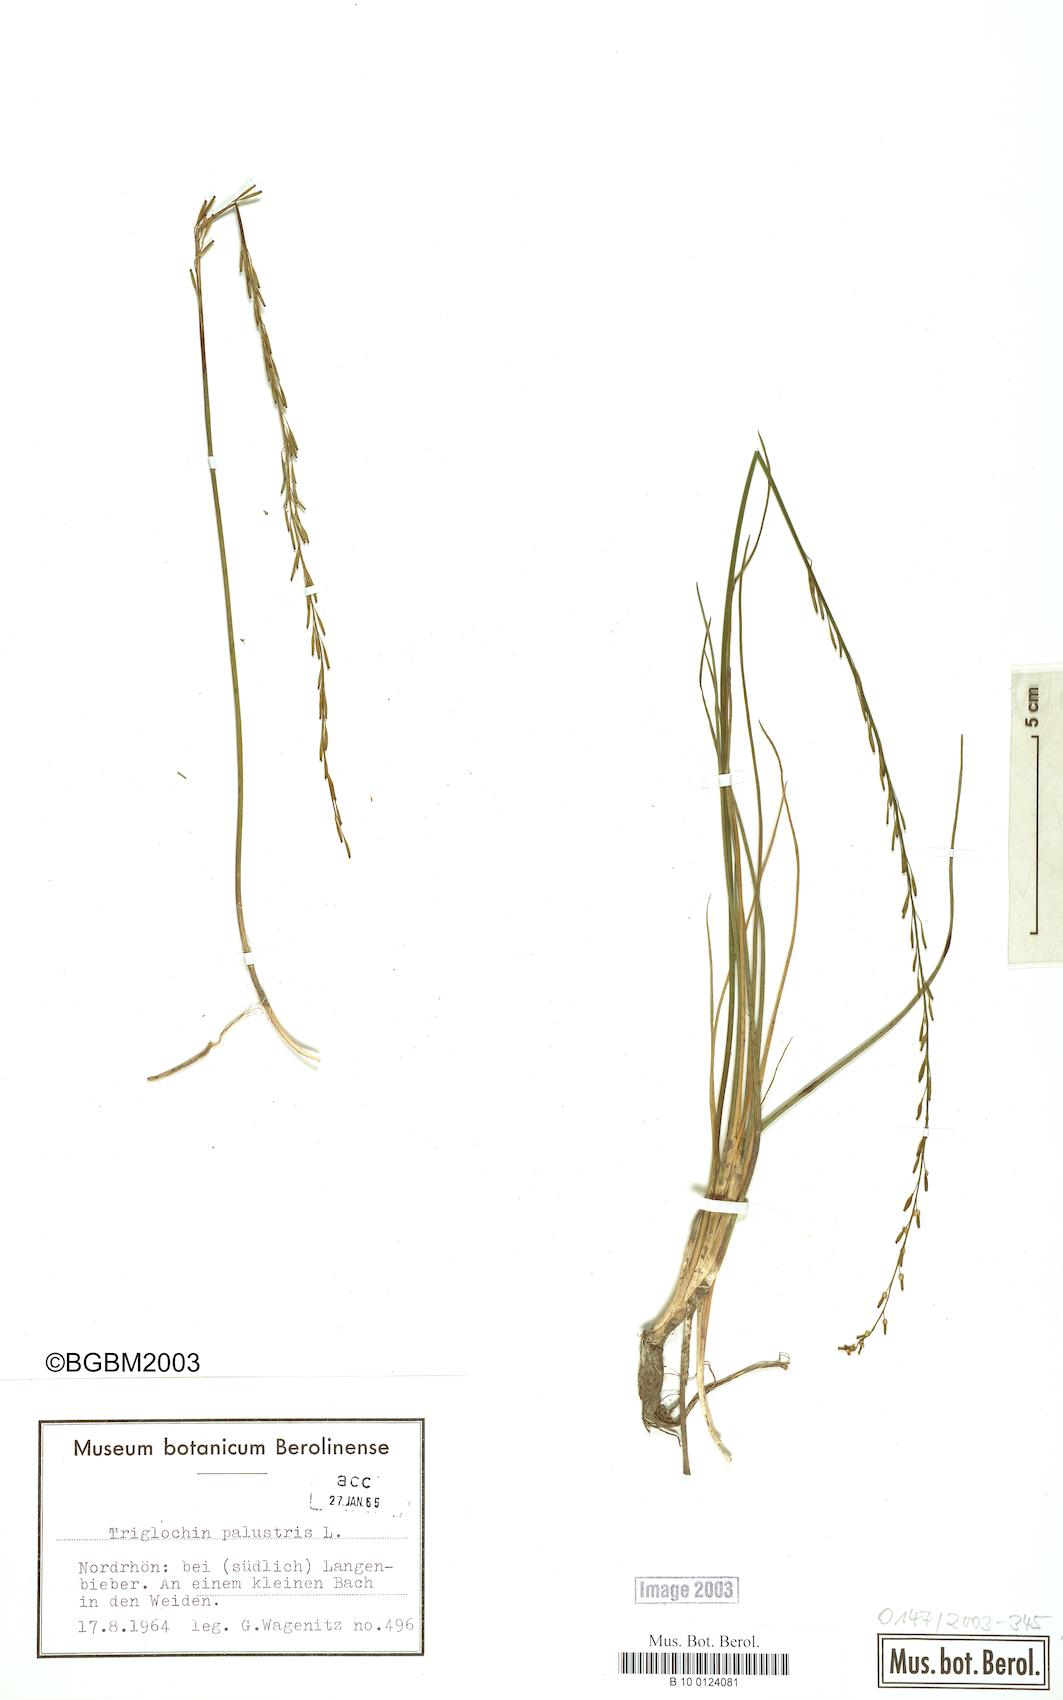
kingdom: Plantae
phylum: Tracheophyta
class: Liliopsida
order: Alismatales
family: Juncaginaceae
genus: Triglochin
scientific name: Triglochin palustris
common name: Marsh arrowgrass
